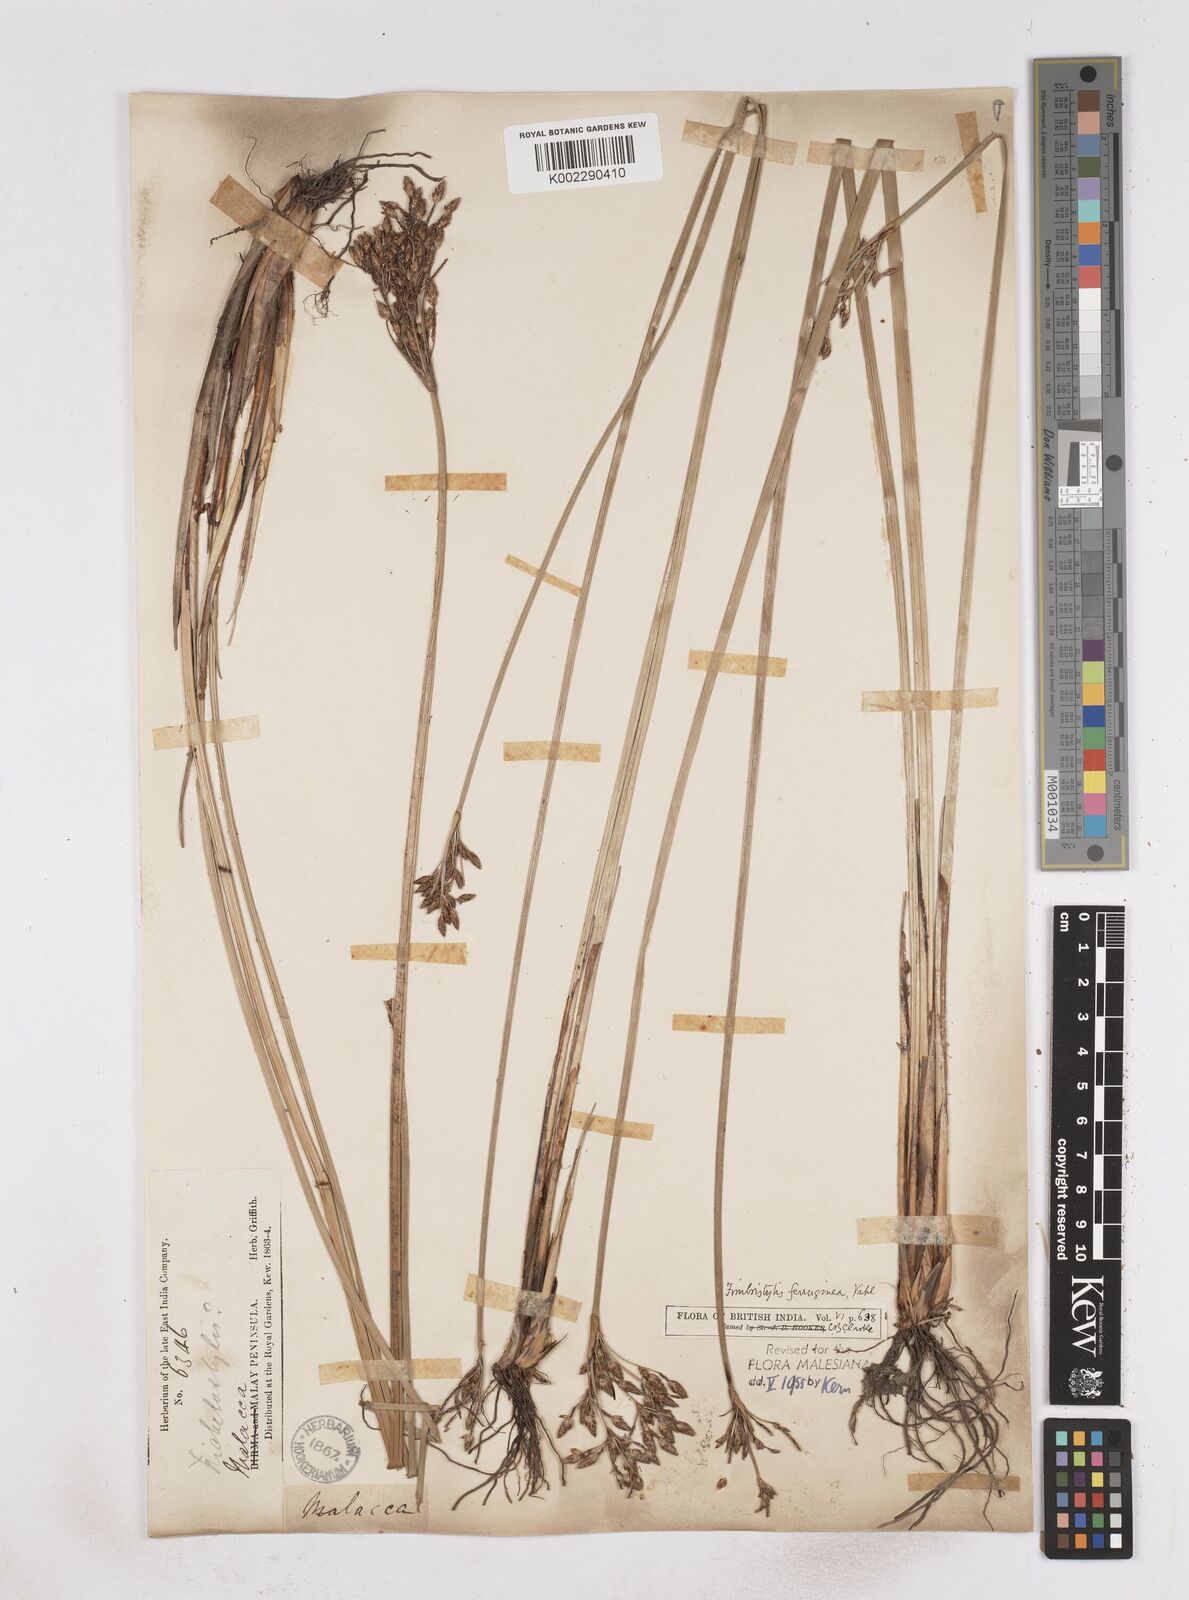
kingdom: Plantae
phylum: Tracheophyta
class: Liliopsida
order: Poales
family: Cyperaceae
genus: Fimbristylis
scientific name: Fimbristylis ferruginea
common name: West indian fimbry
